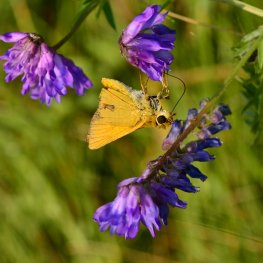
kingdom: Animalia
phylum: Arthropoda
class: Insecta
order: Lepidoptera
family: Hesperiidae
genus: Atrytone
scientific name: Atrytone delaware
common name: Delaware Skipper
